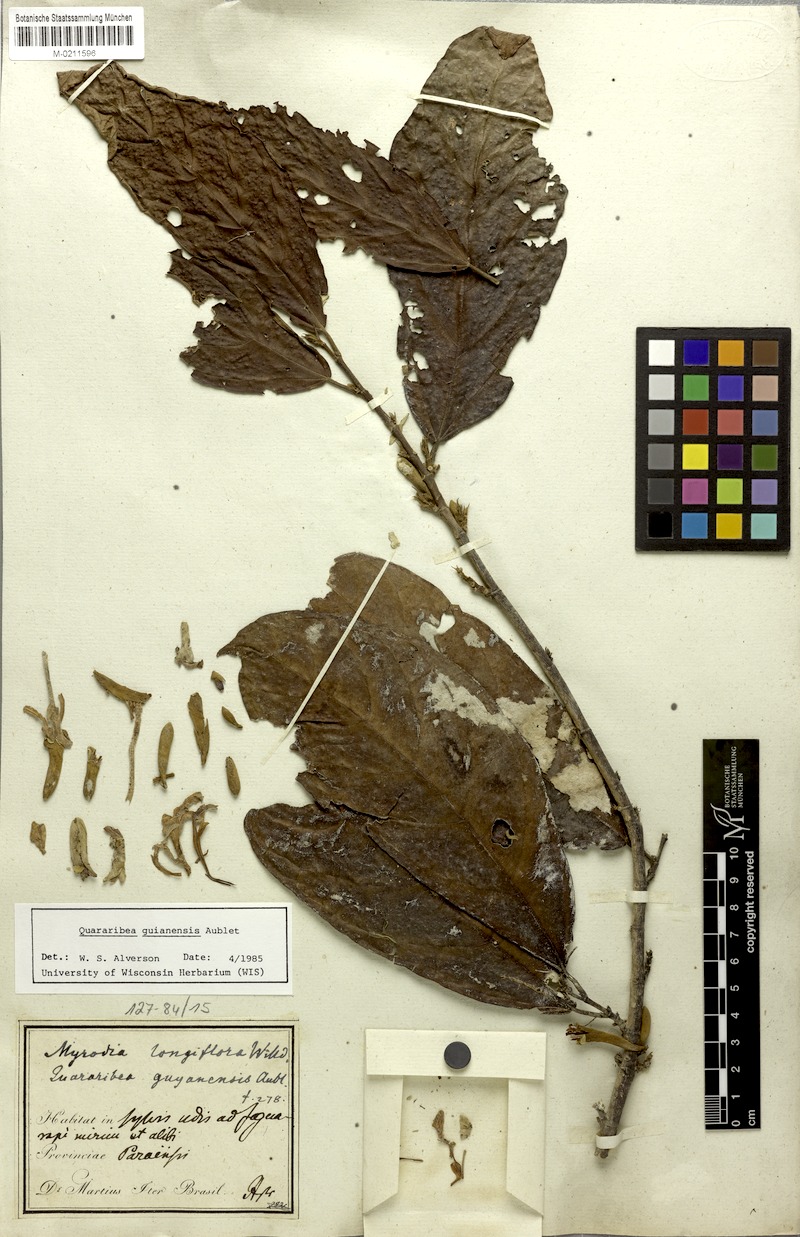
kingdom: Plantae
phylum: Tracheophyta
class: Magnoliopsida
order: Malvales
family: Malvaceae
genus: Quararibea
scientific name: Quararibea guianensis
